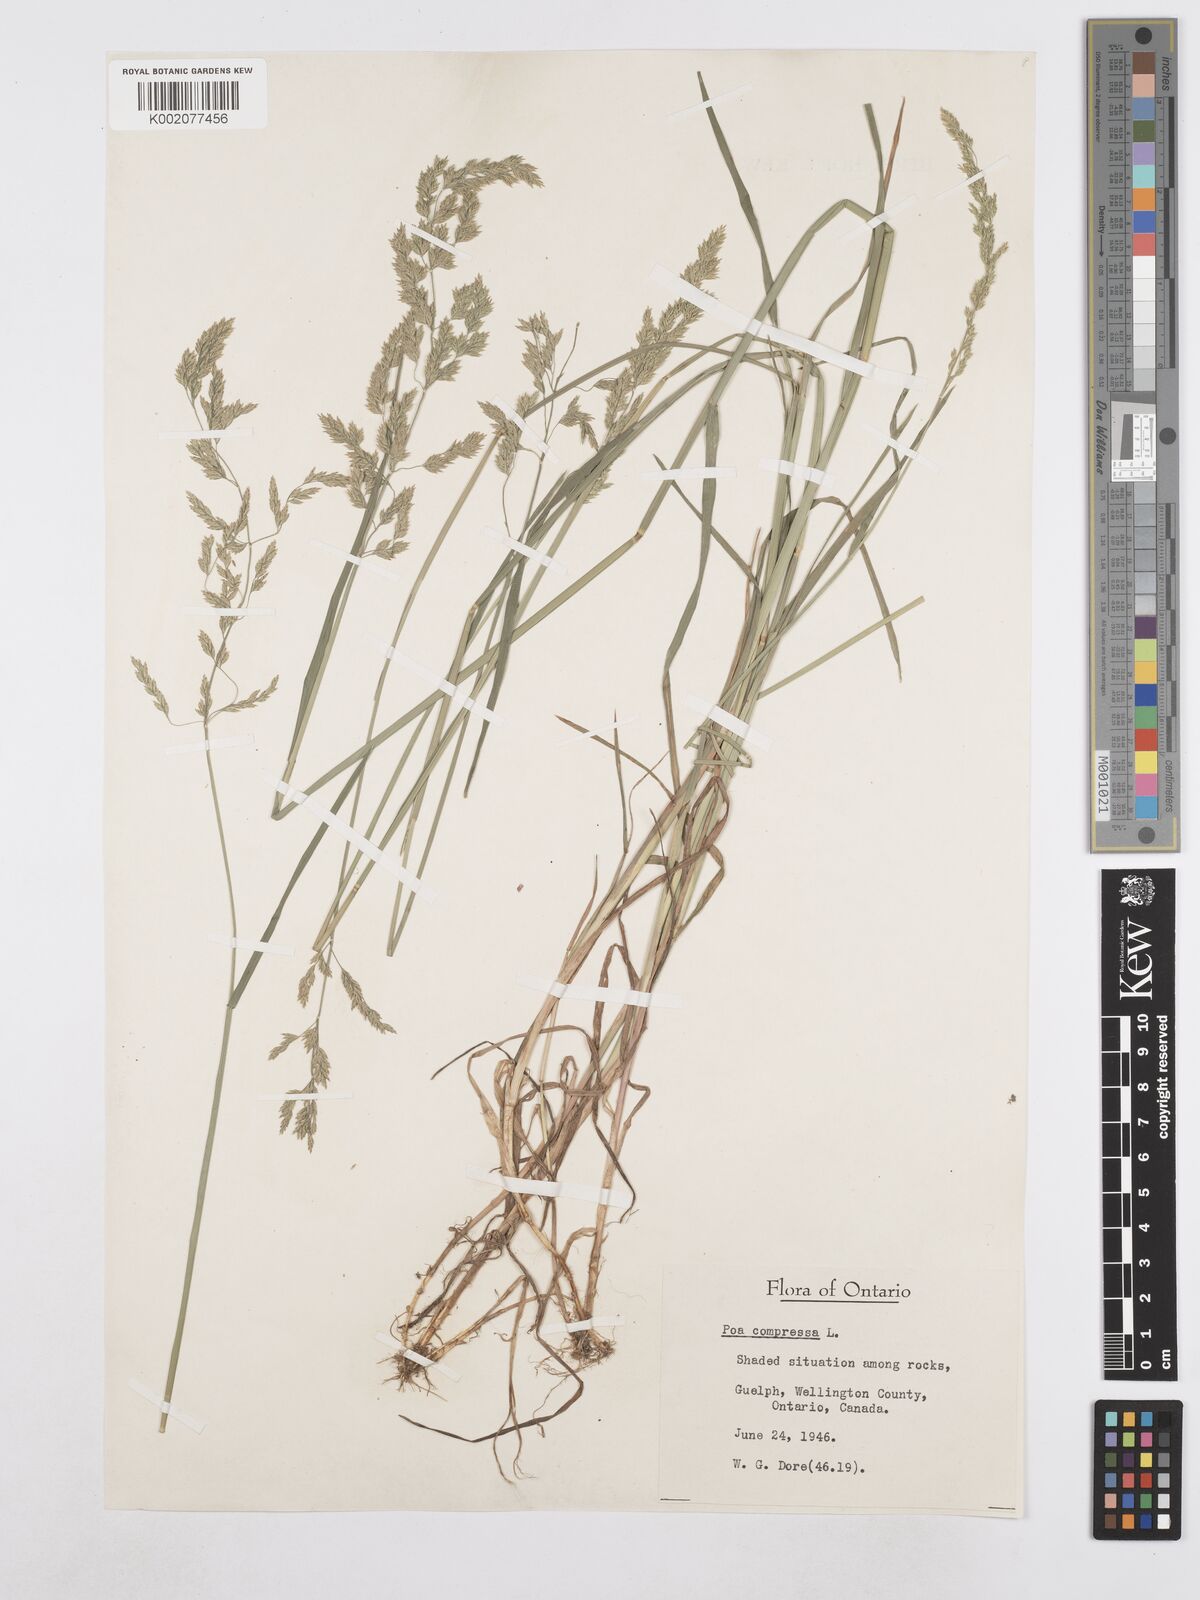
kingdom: Plantae
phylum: Tracheophyta
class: Liliopsida
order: Poales
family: Poaceae
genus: Poa
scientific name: Poa compressa
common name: Canada bluegrass
